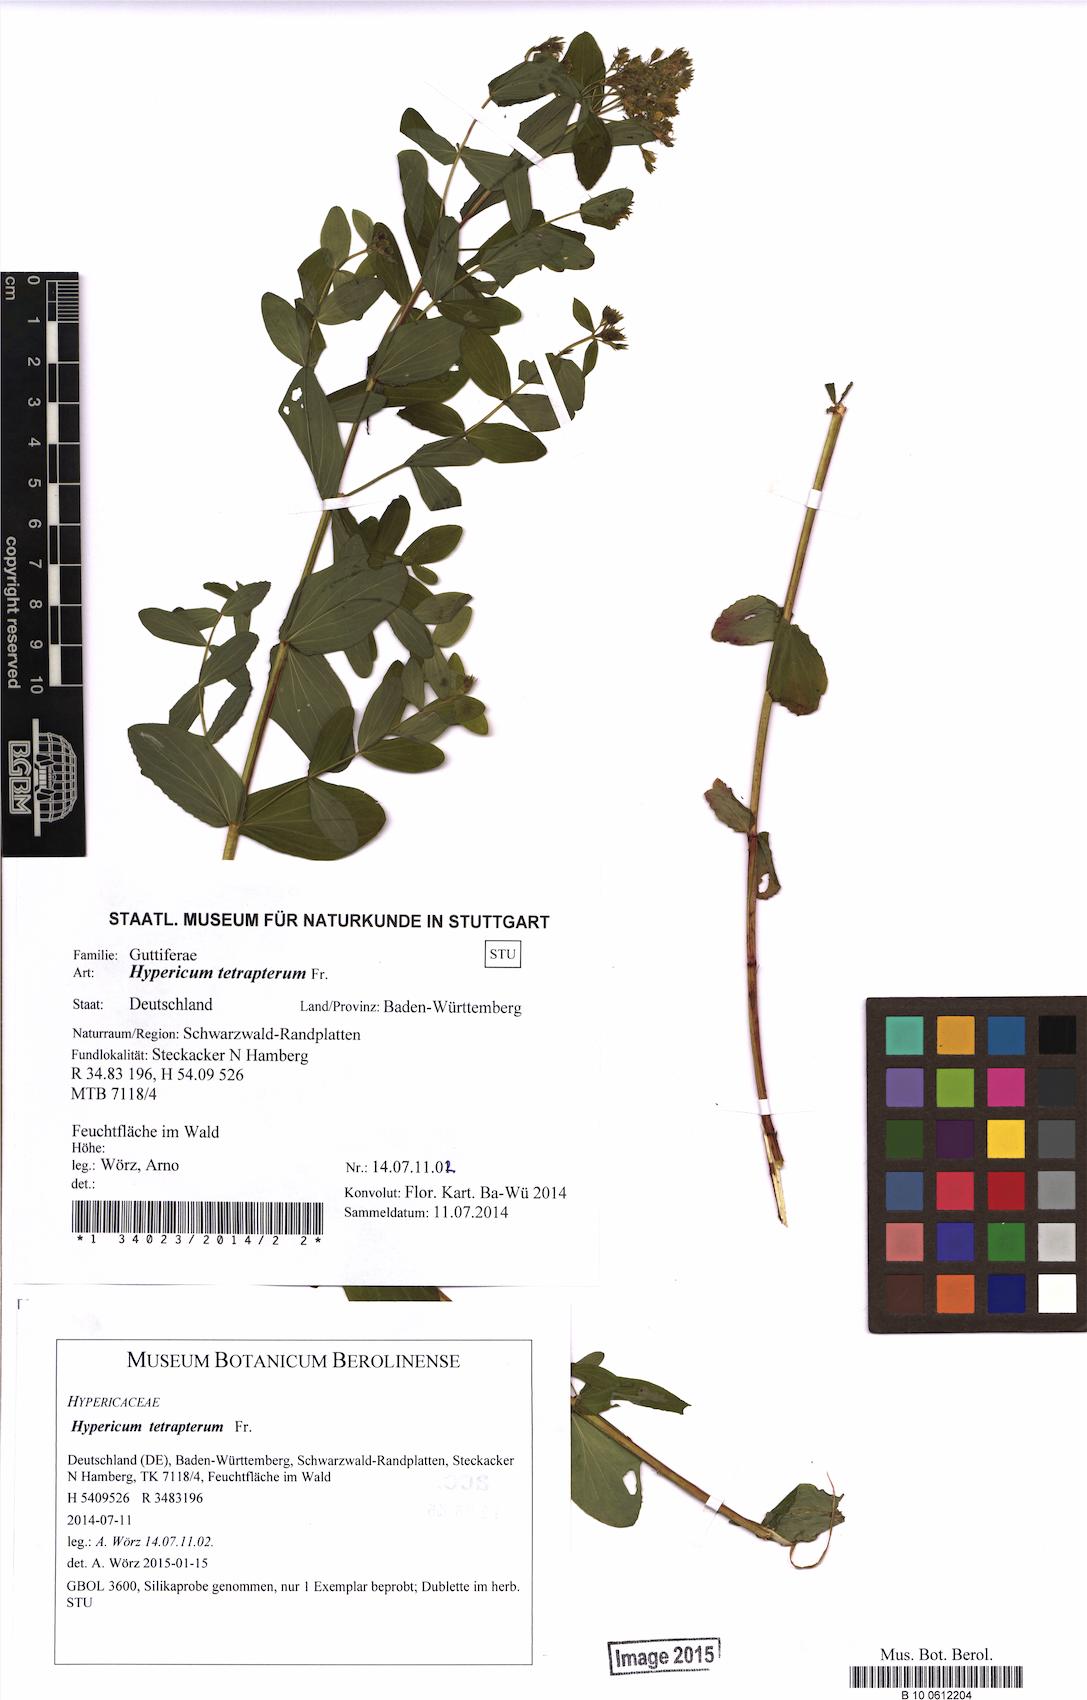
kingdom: Plantae
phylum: Tracheophyta
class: Magnoliopsida
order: Malpighiales
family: Hypericaceae
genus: Hypericum
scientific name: Hypericum tetrapterum
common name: Square-stalked st. john's-wort
